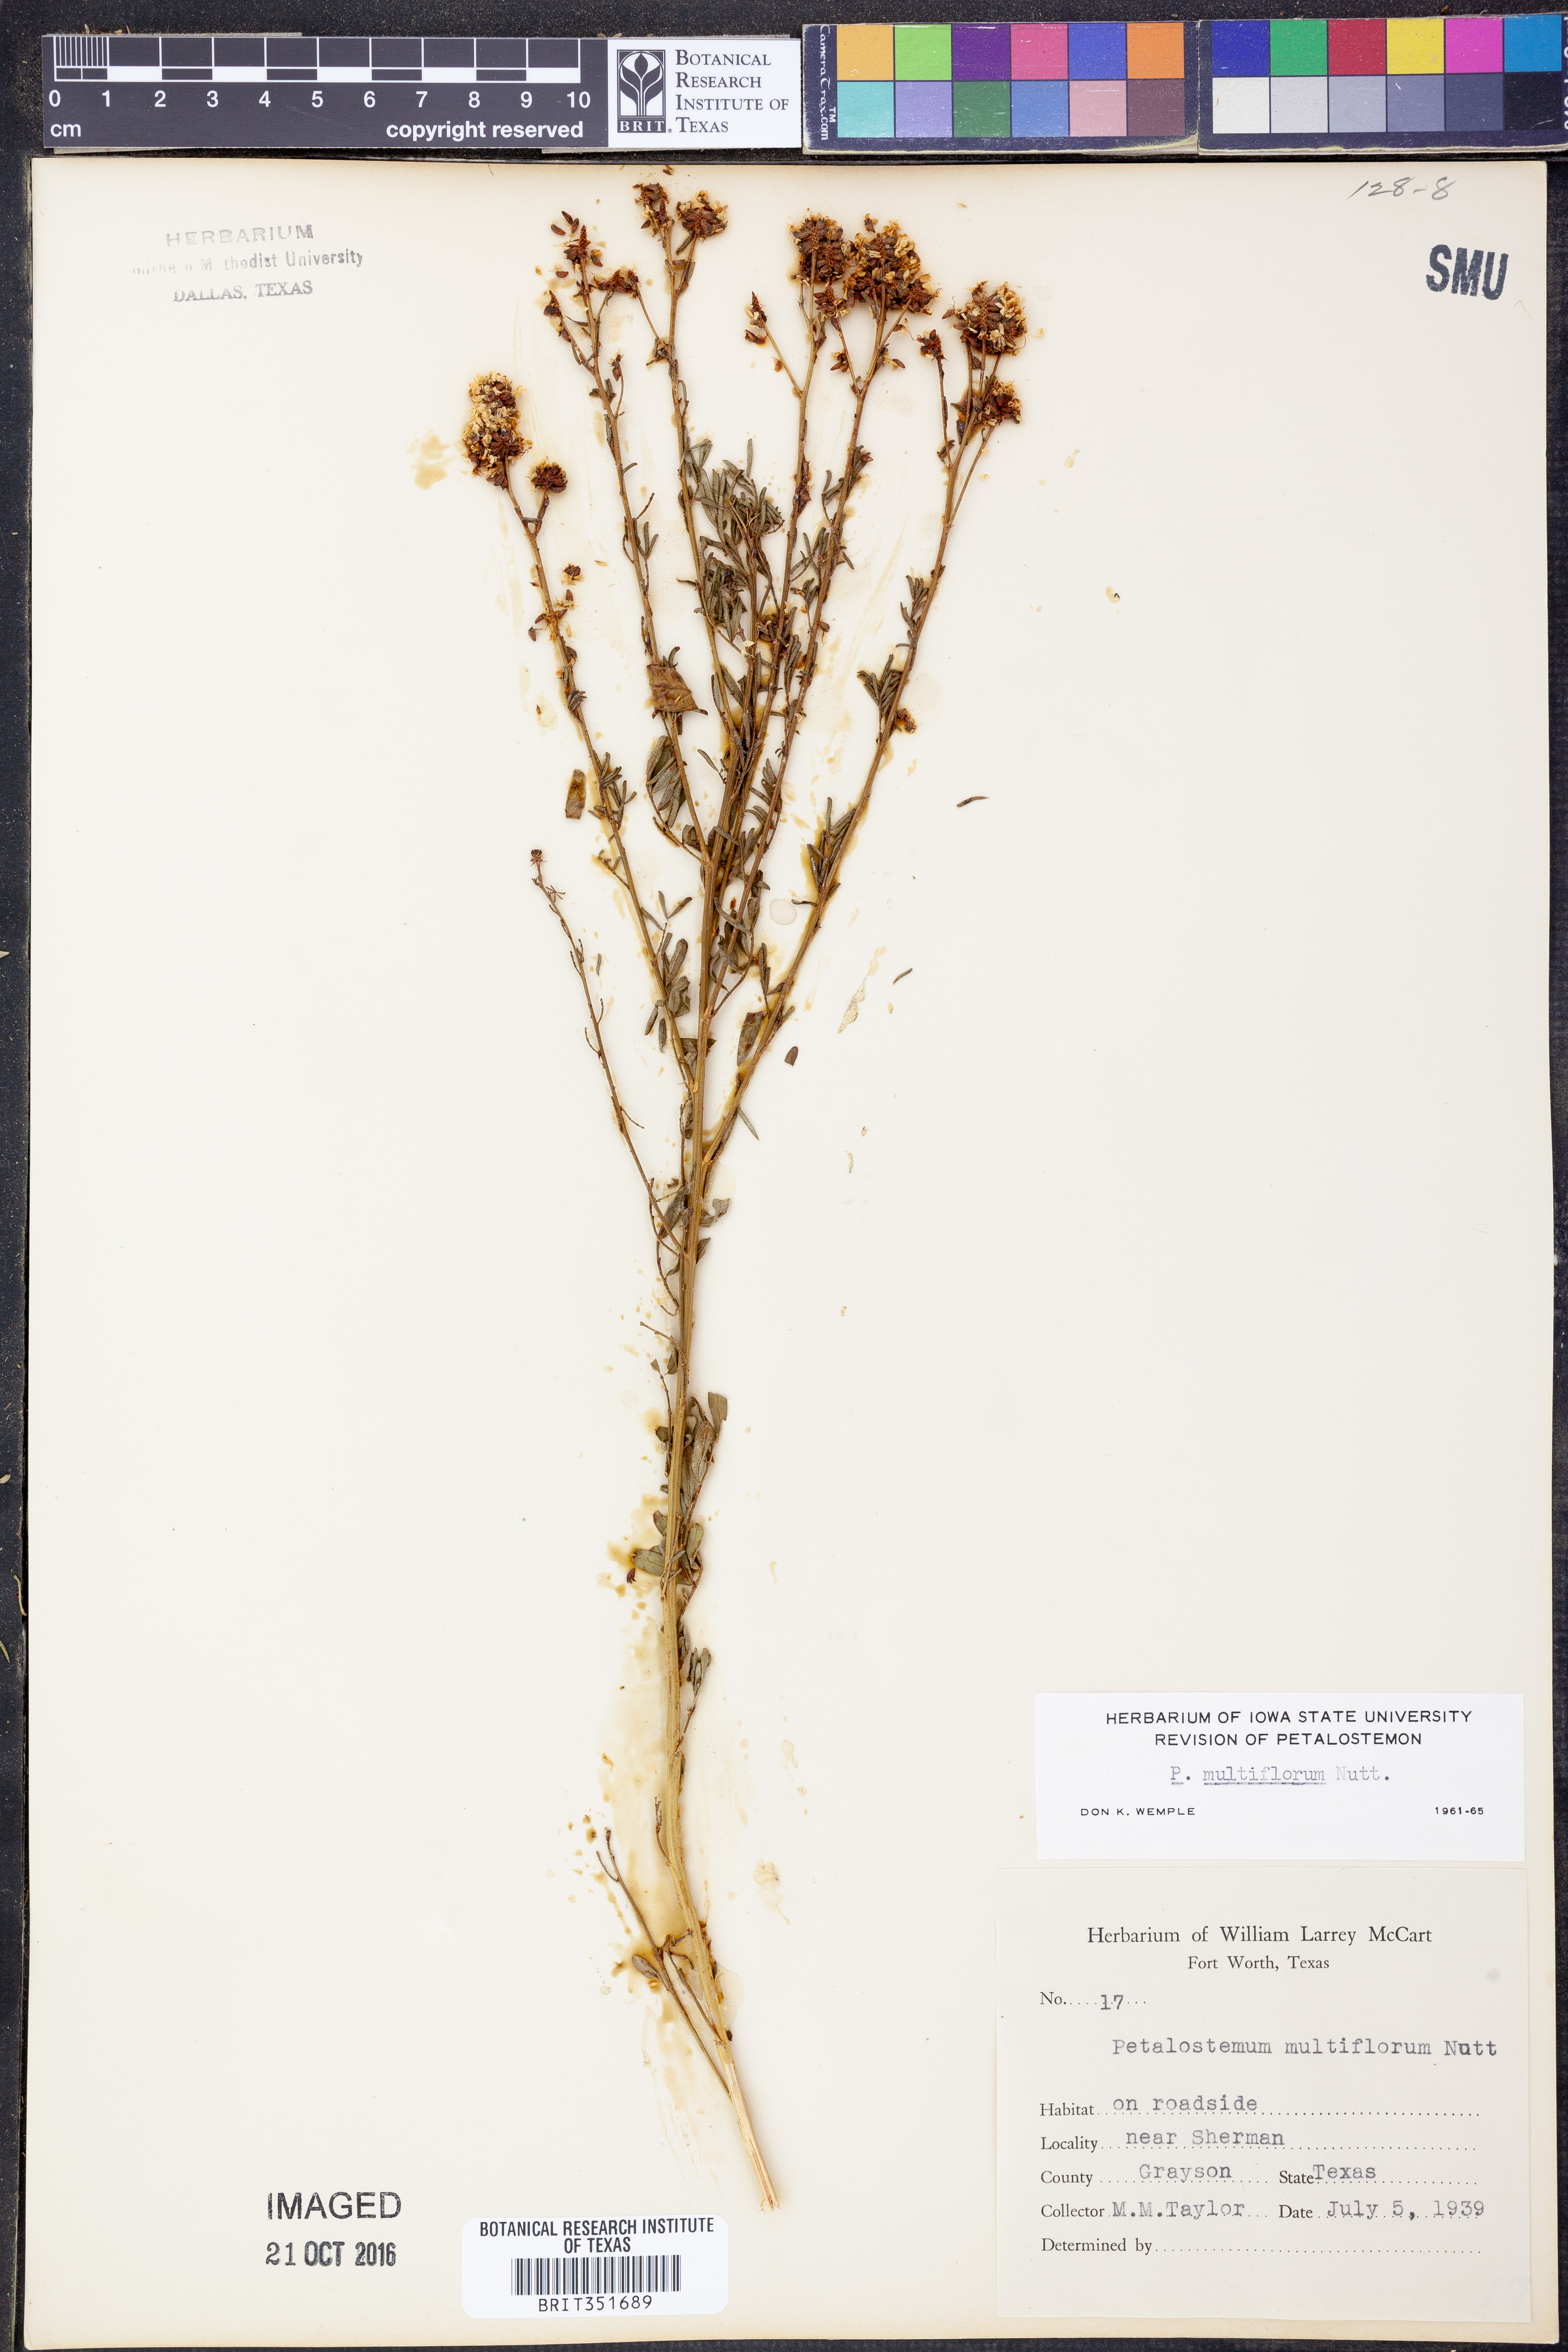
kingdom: Plantae
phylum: Tracheophyta
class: Magnoliopsida
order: Fabales
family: Fabaceae
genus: Dalea
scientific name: Dalea multiflora
